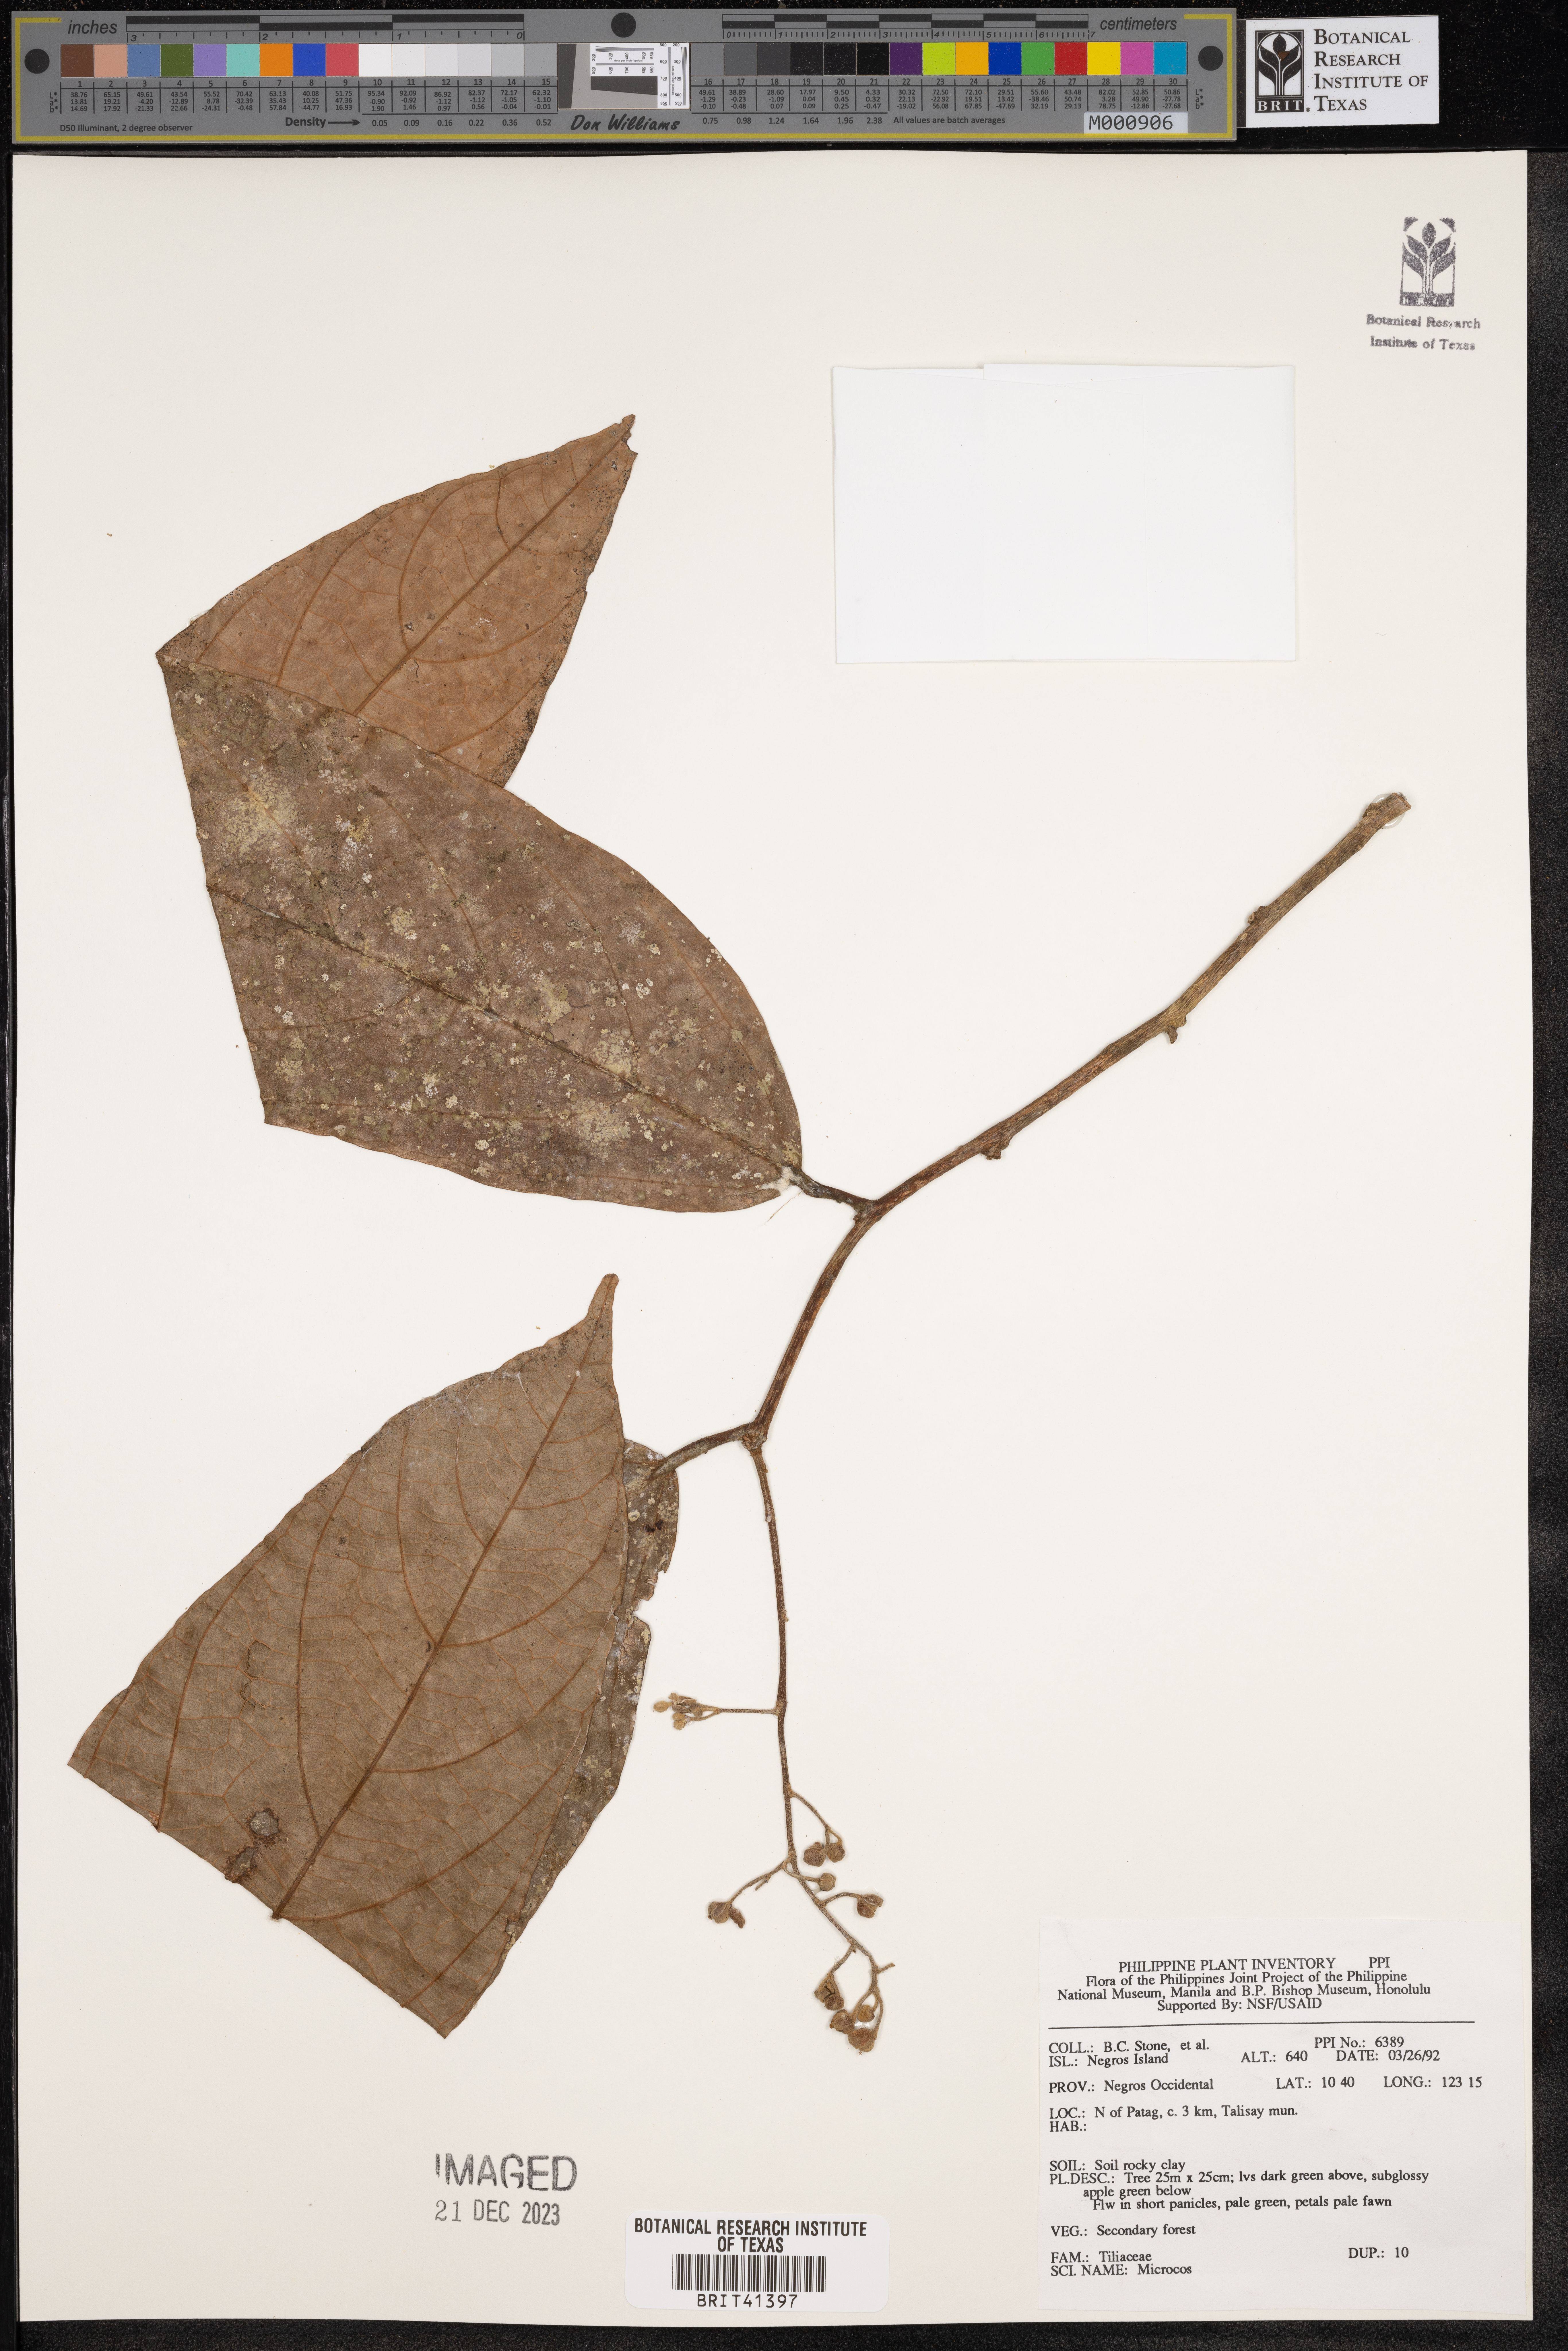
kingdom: Plantae
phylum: Tracheophyta
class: Magnoliopsida
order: Malvales
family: Malvaceae
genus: Microcos
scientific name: Microcos
